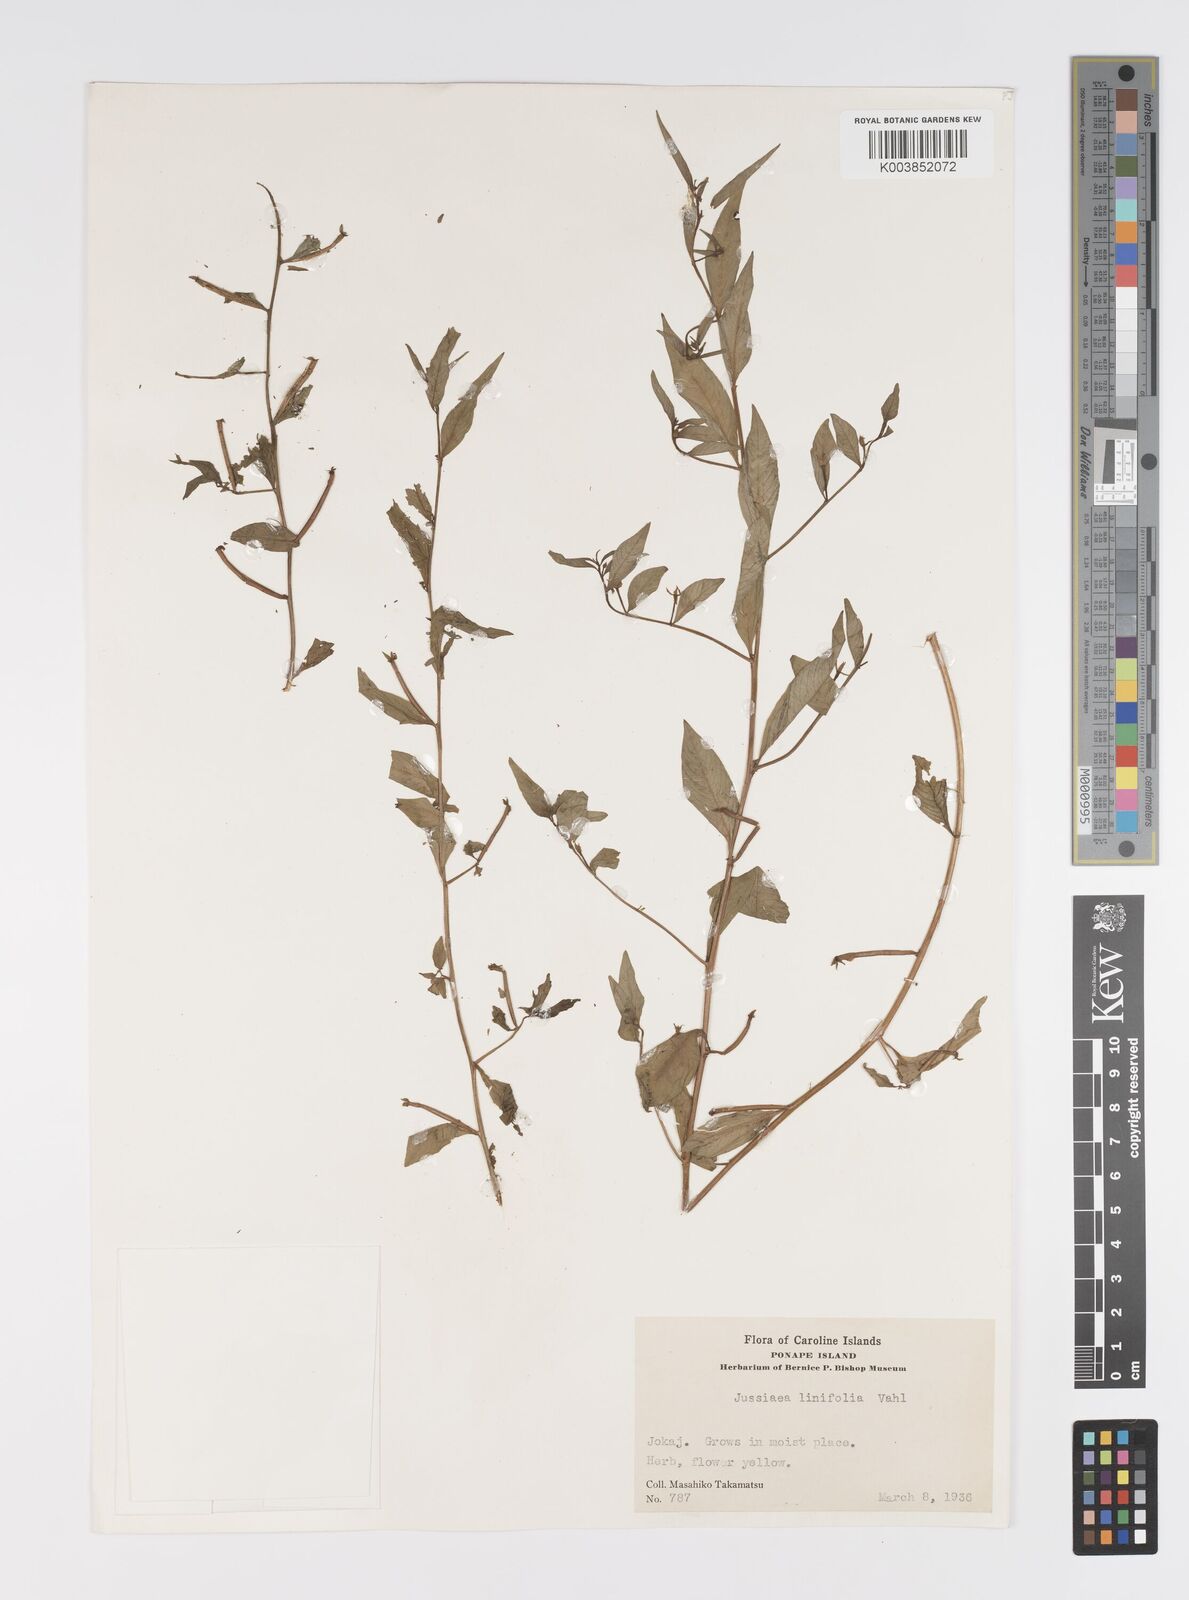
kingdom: Plantae
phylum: Tracheophyta
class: Magnoliopsida
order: Myrtales
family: Onagraceae
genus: Ludwigia
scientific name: Ludwigia hyssopifolia
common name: Linear leaf water primrose
